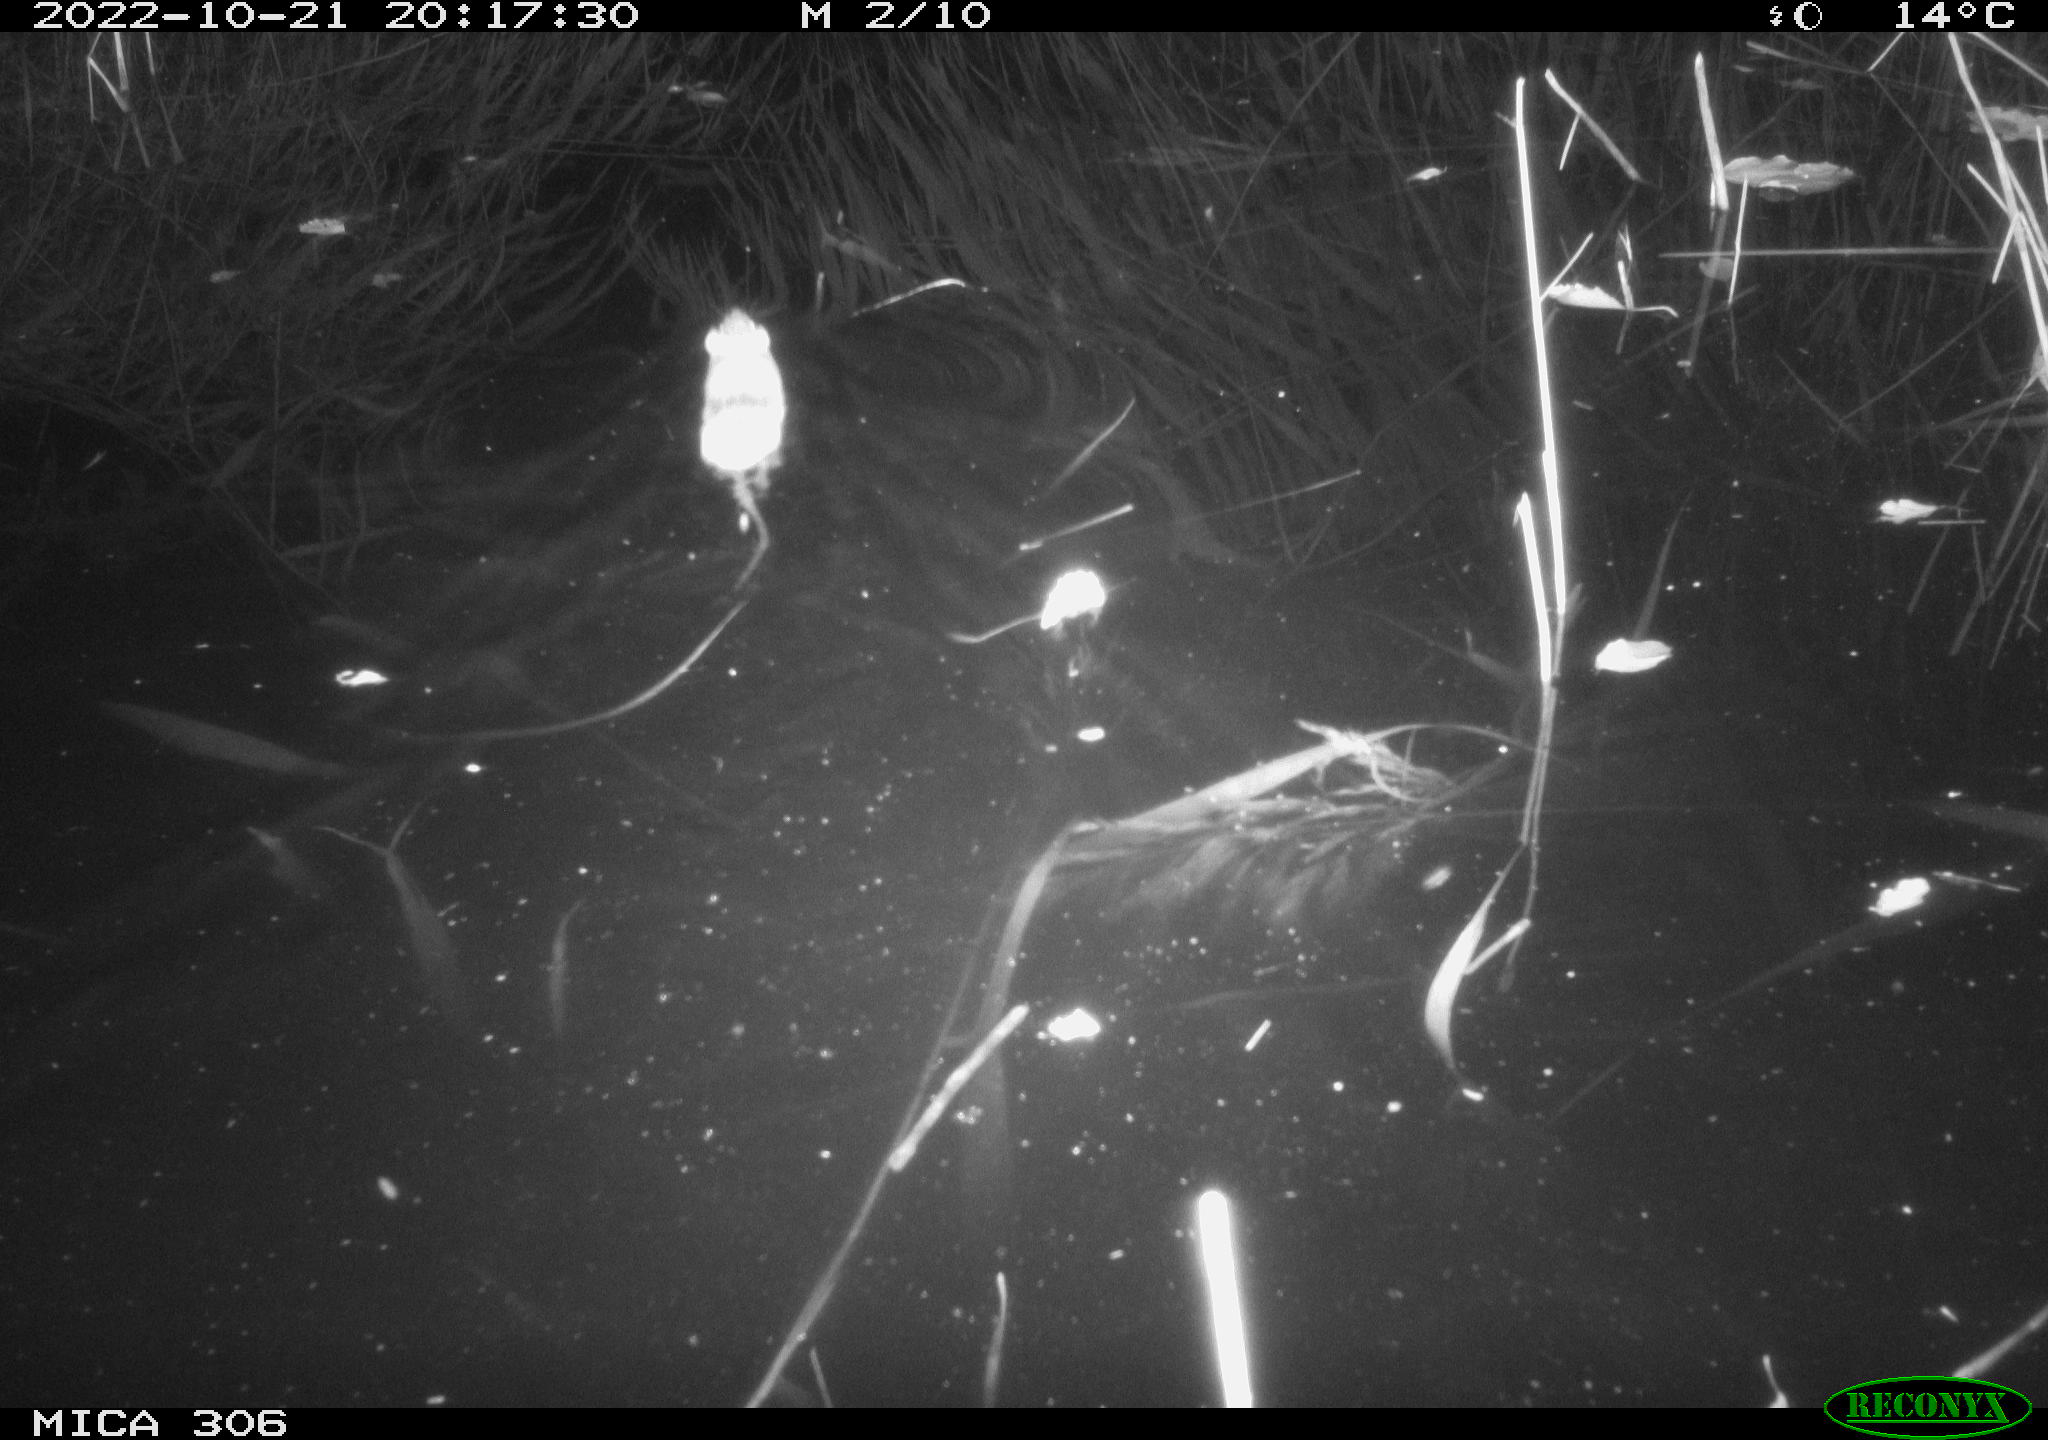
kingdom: Animalia
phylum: Chordata
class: Mammalia
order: Rodentia
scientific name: Rodentia
